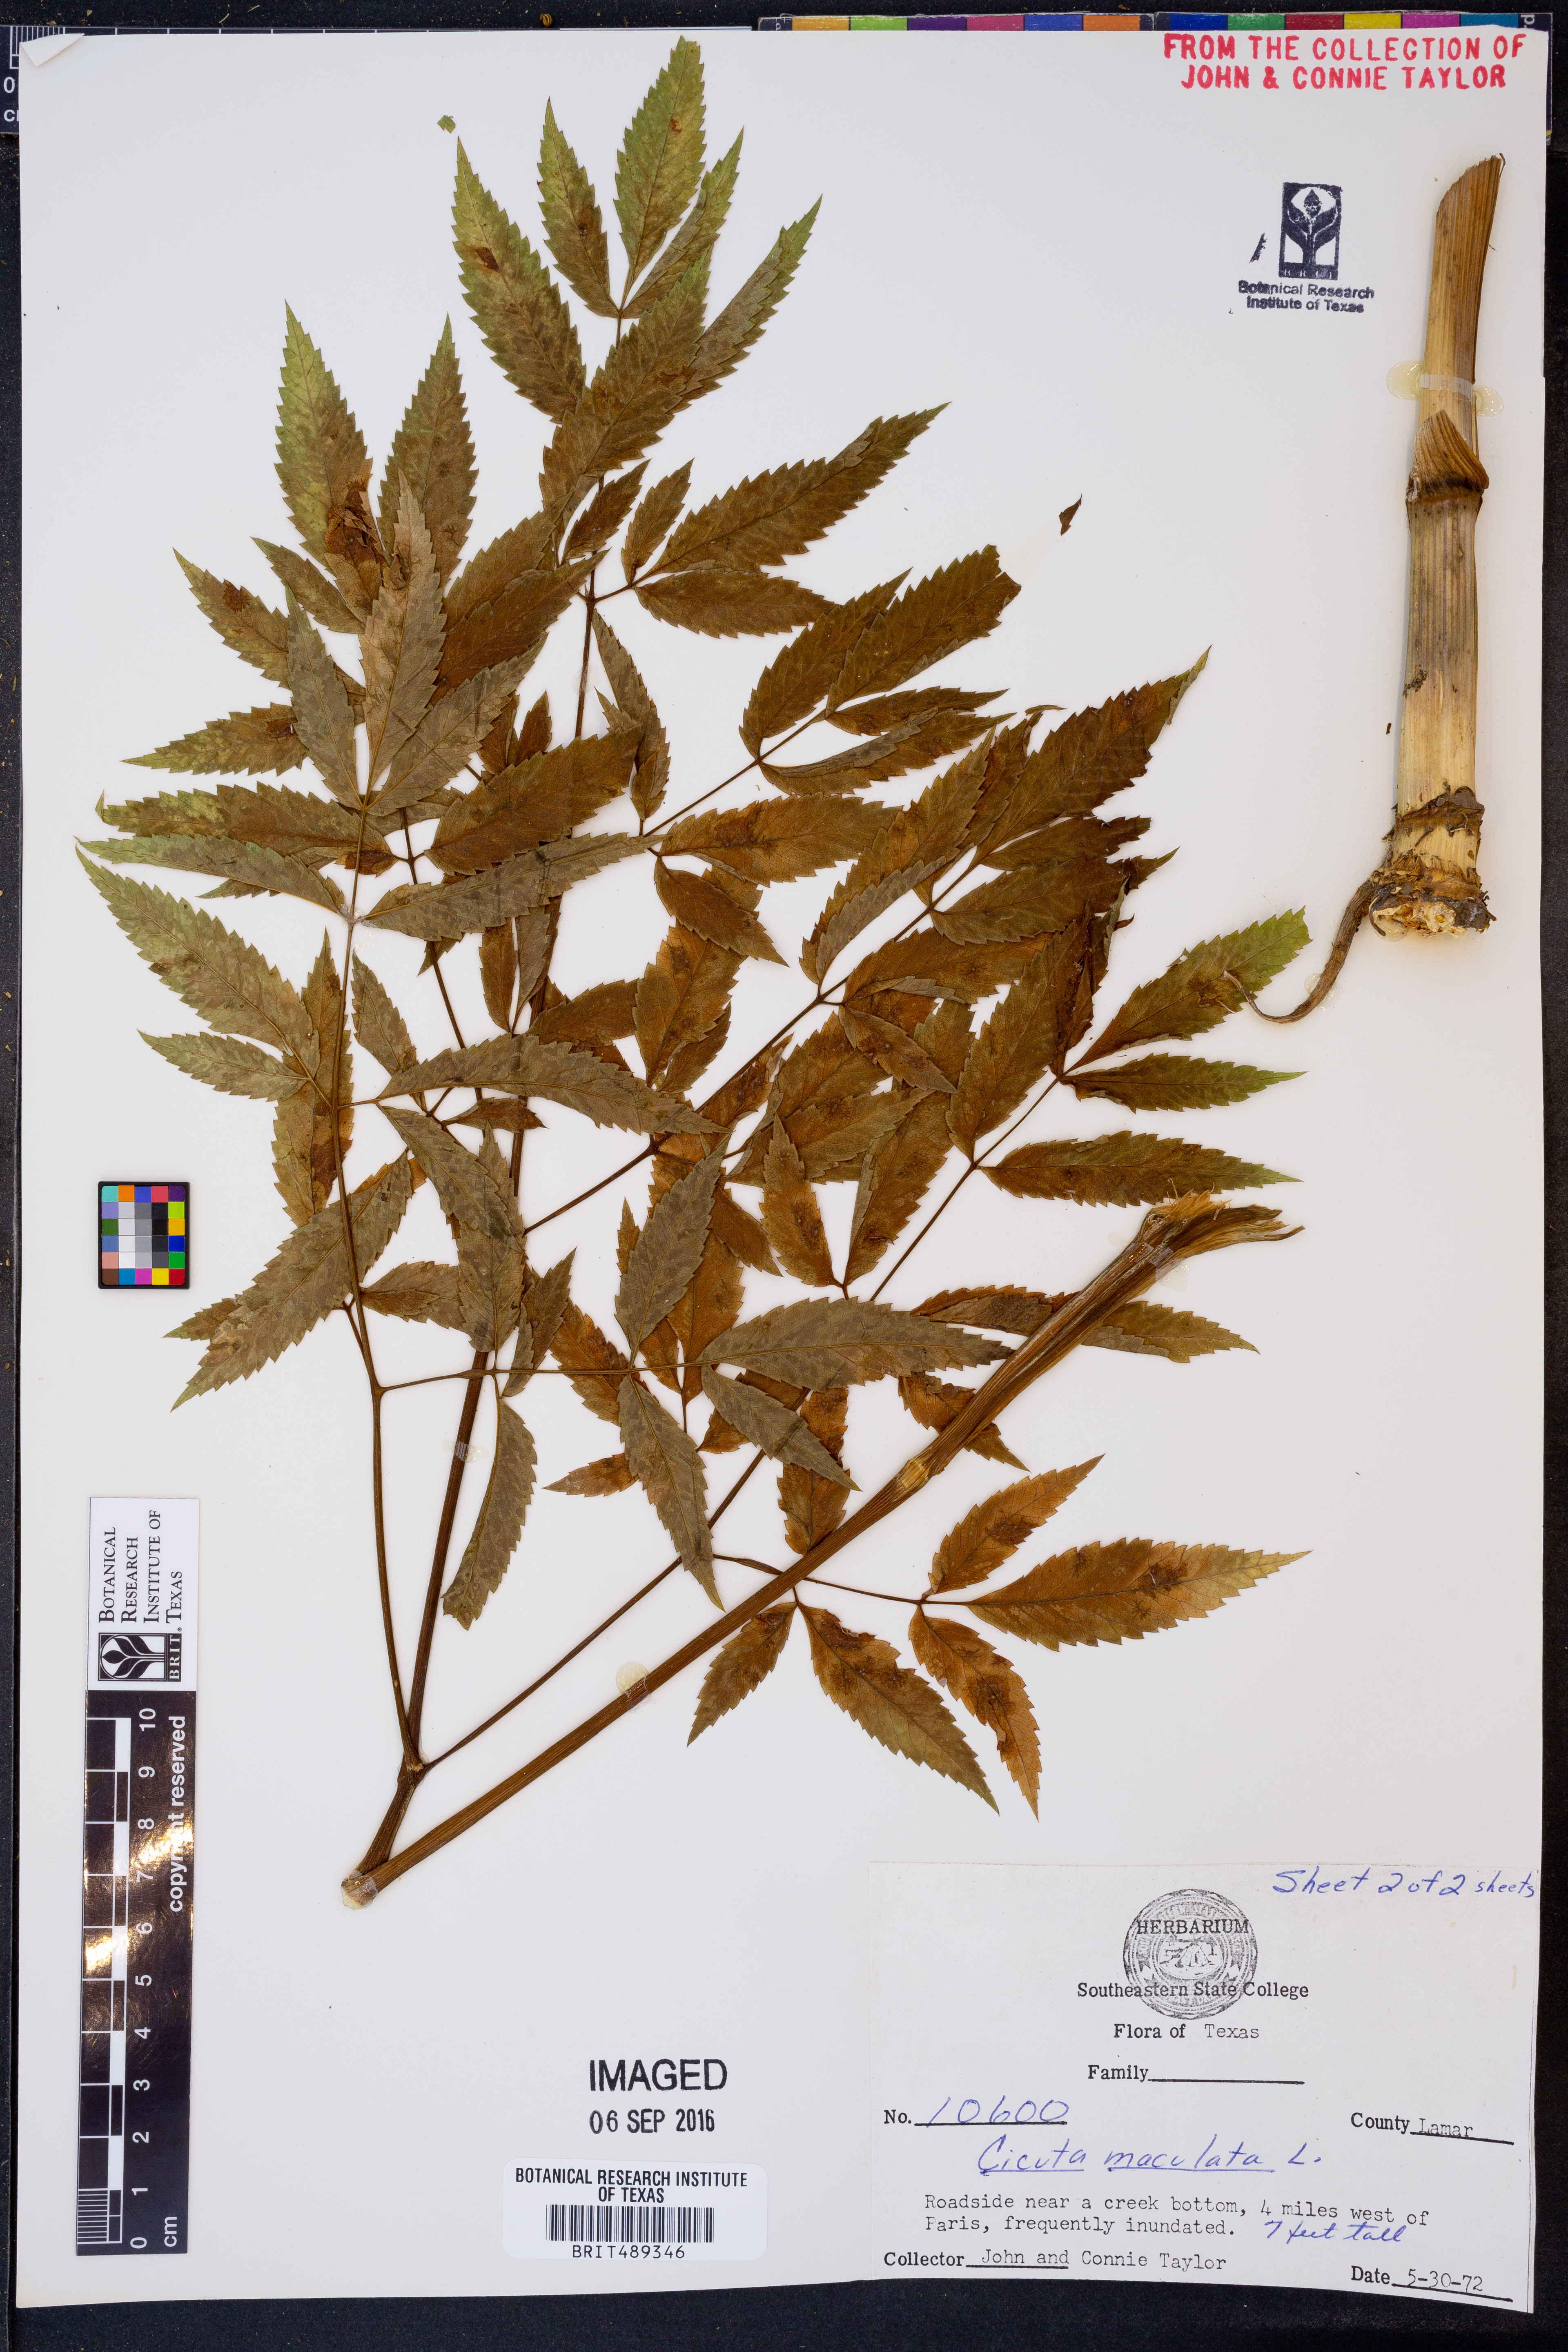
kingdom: Plantae
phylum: Tracheophyta
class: Magnoliopsida
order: Apiales
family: Apiaceae
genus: Cicuta
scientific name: Cicuta maculata
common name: Spotted cowbane
